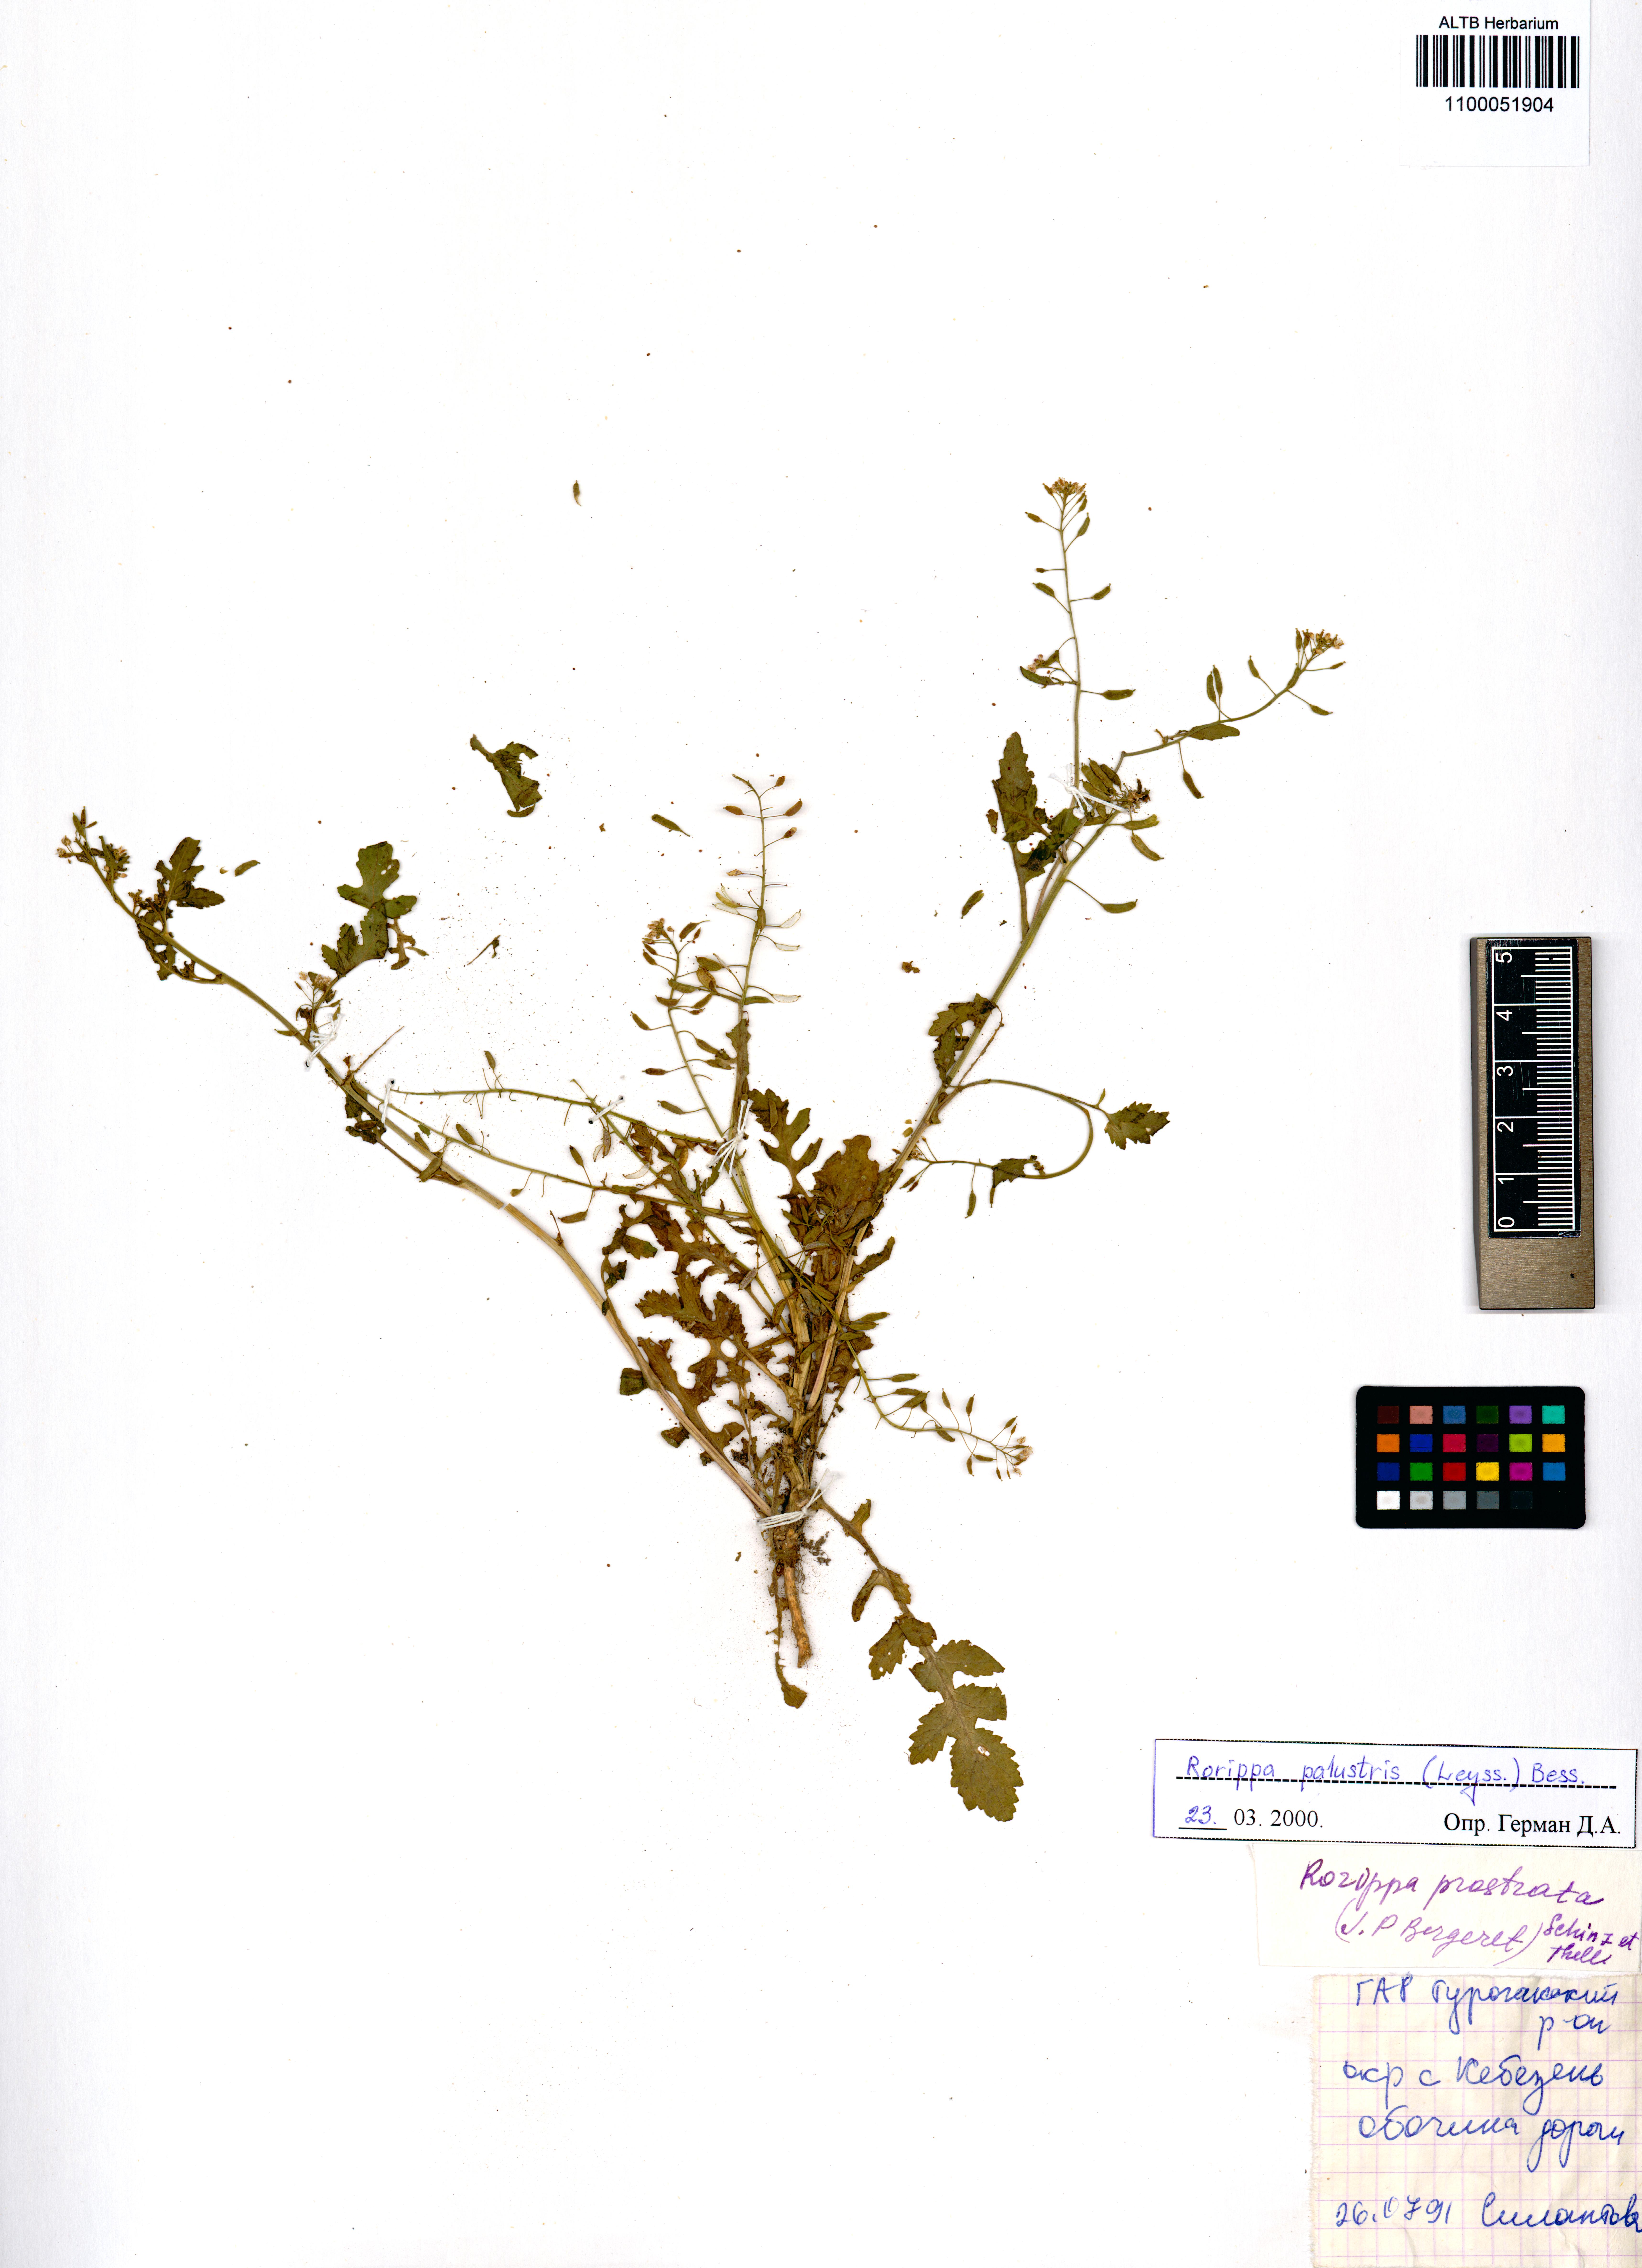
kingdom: Plantae
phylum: Tracheophyta
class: Magnoliopsida
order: Brassicales
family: Brassicaceae
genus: Rorippa
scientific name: Rorippa palustris
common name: Marsh yellow-cress
